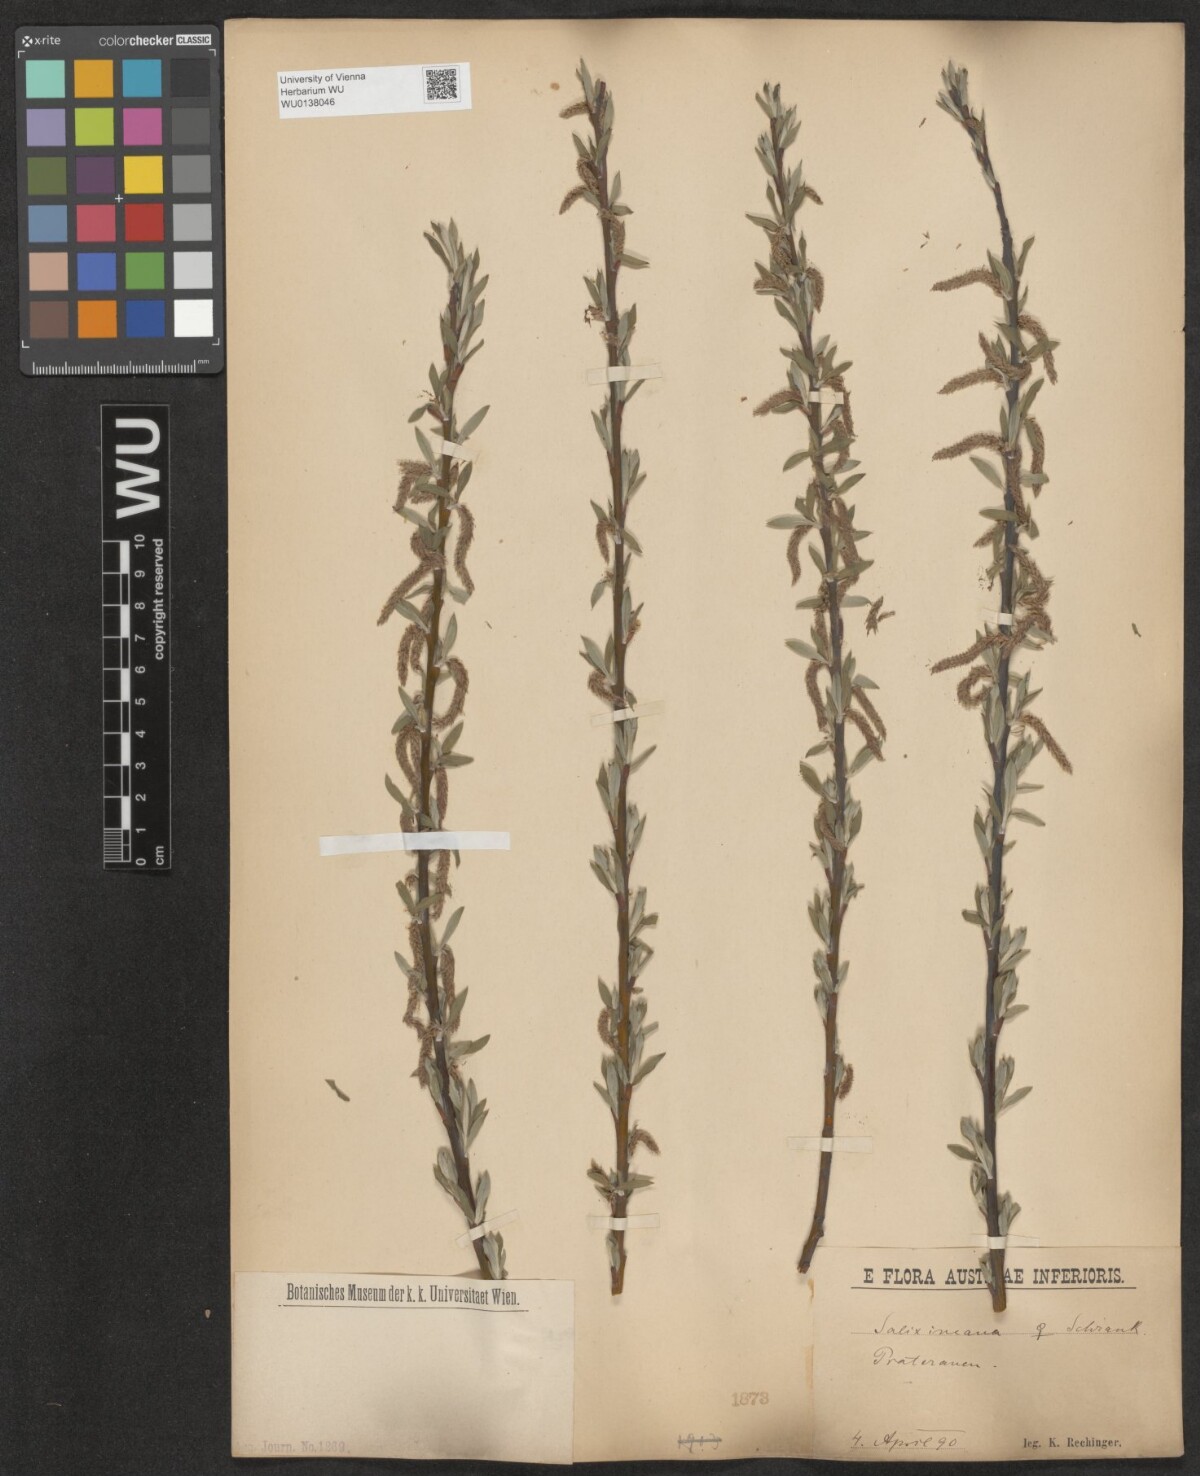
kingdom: Plantae
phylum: Tracheophyta
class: Magnoliopsida
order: Malpighiales
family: Salicaceae
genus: Salix
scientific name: Salix eleagnos
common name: Elaeagnus willow
